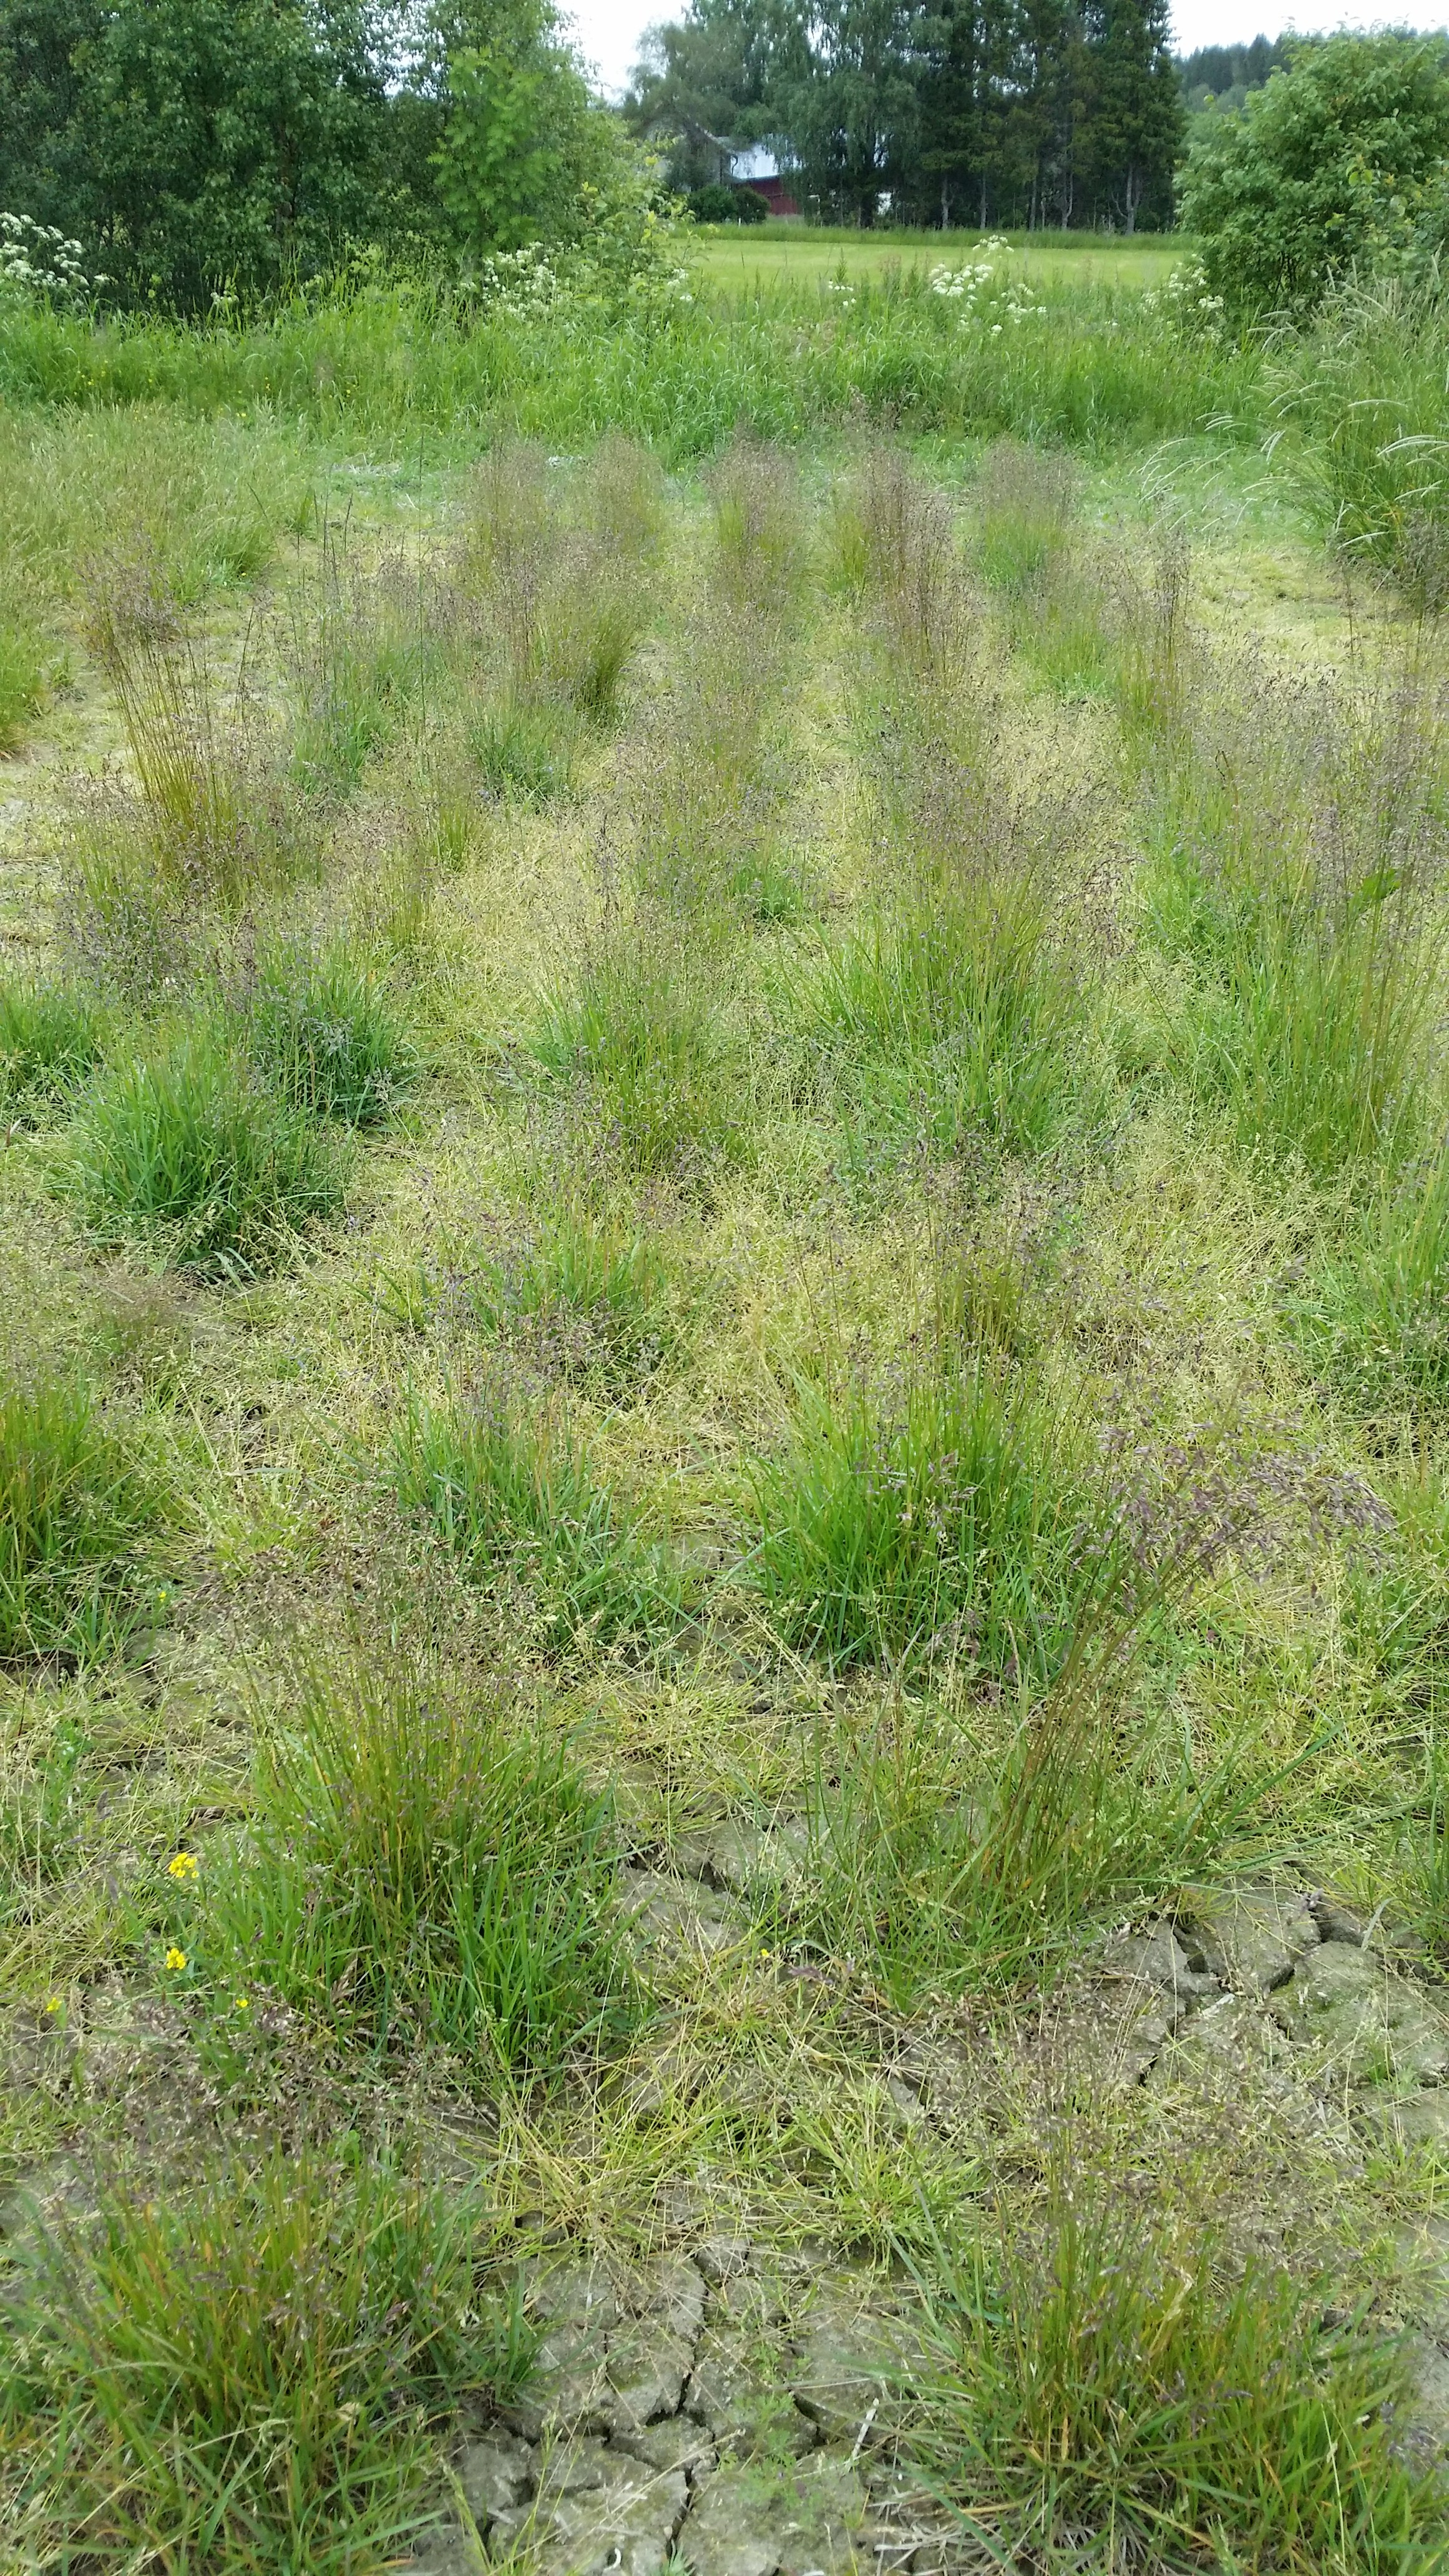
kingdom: Plantae
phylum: Tracheophyta
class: Liliopsida
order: Poales
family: Poaceae
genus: Poa
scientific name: Poa pratensis
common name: Kentucky bluegrass
